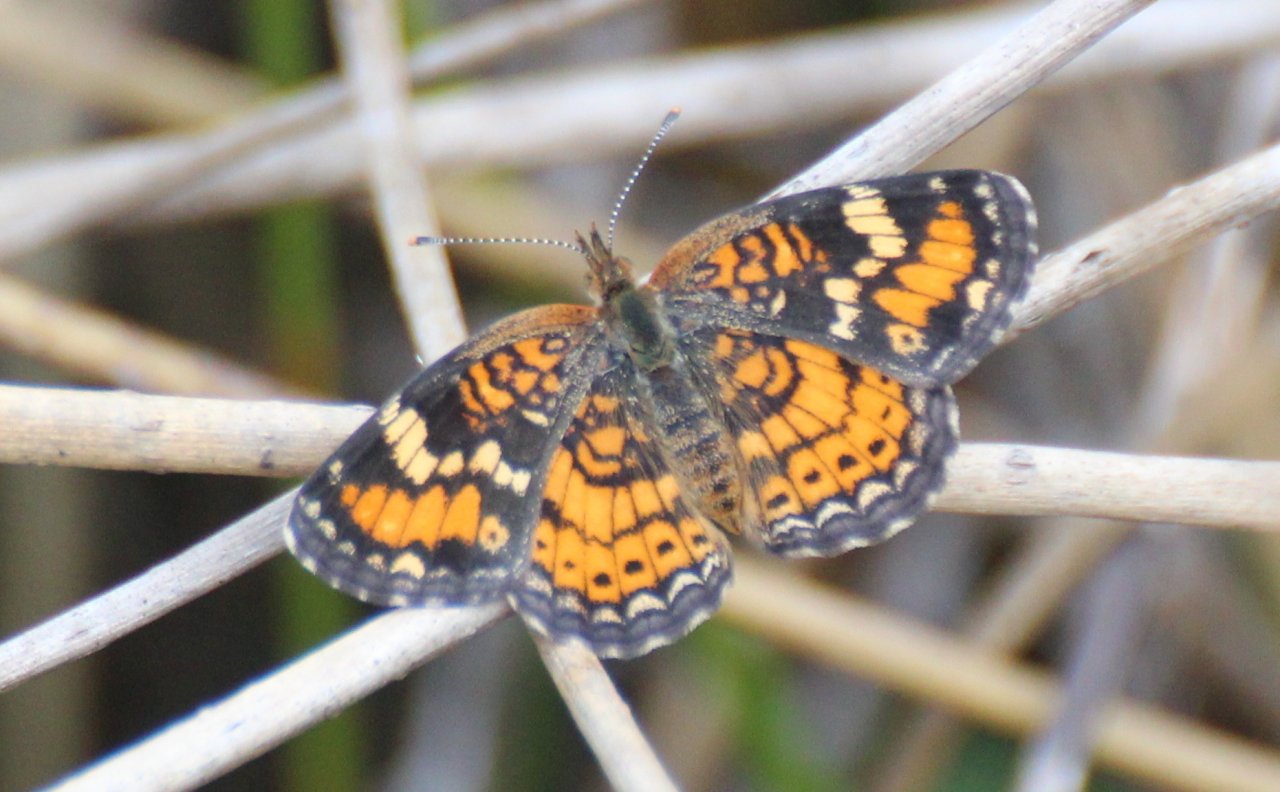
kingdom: Animalia
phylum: Arthropoda
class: Insecta
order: Lepidoptera
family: Nymphalidae
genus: Phyciodes
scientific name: Phyciodes phaon
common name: Phaon Crescent
